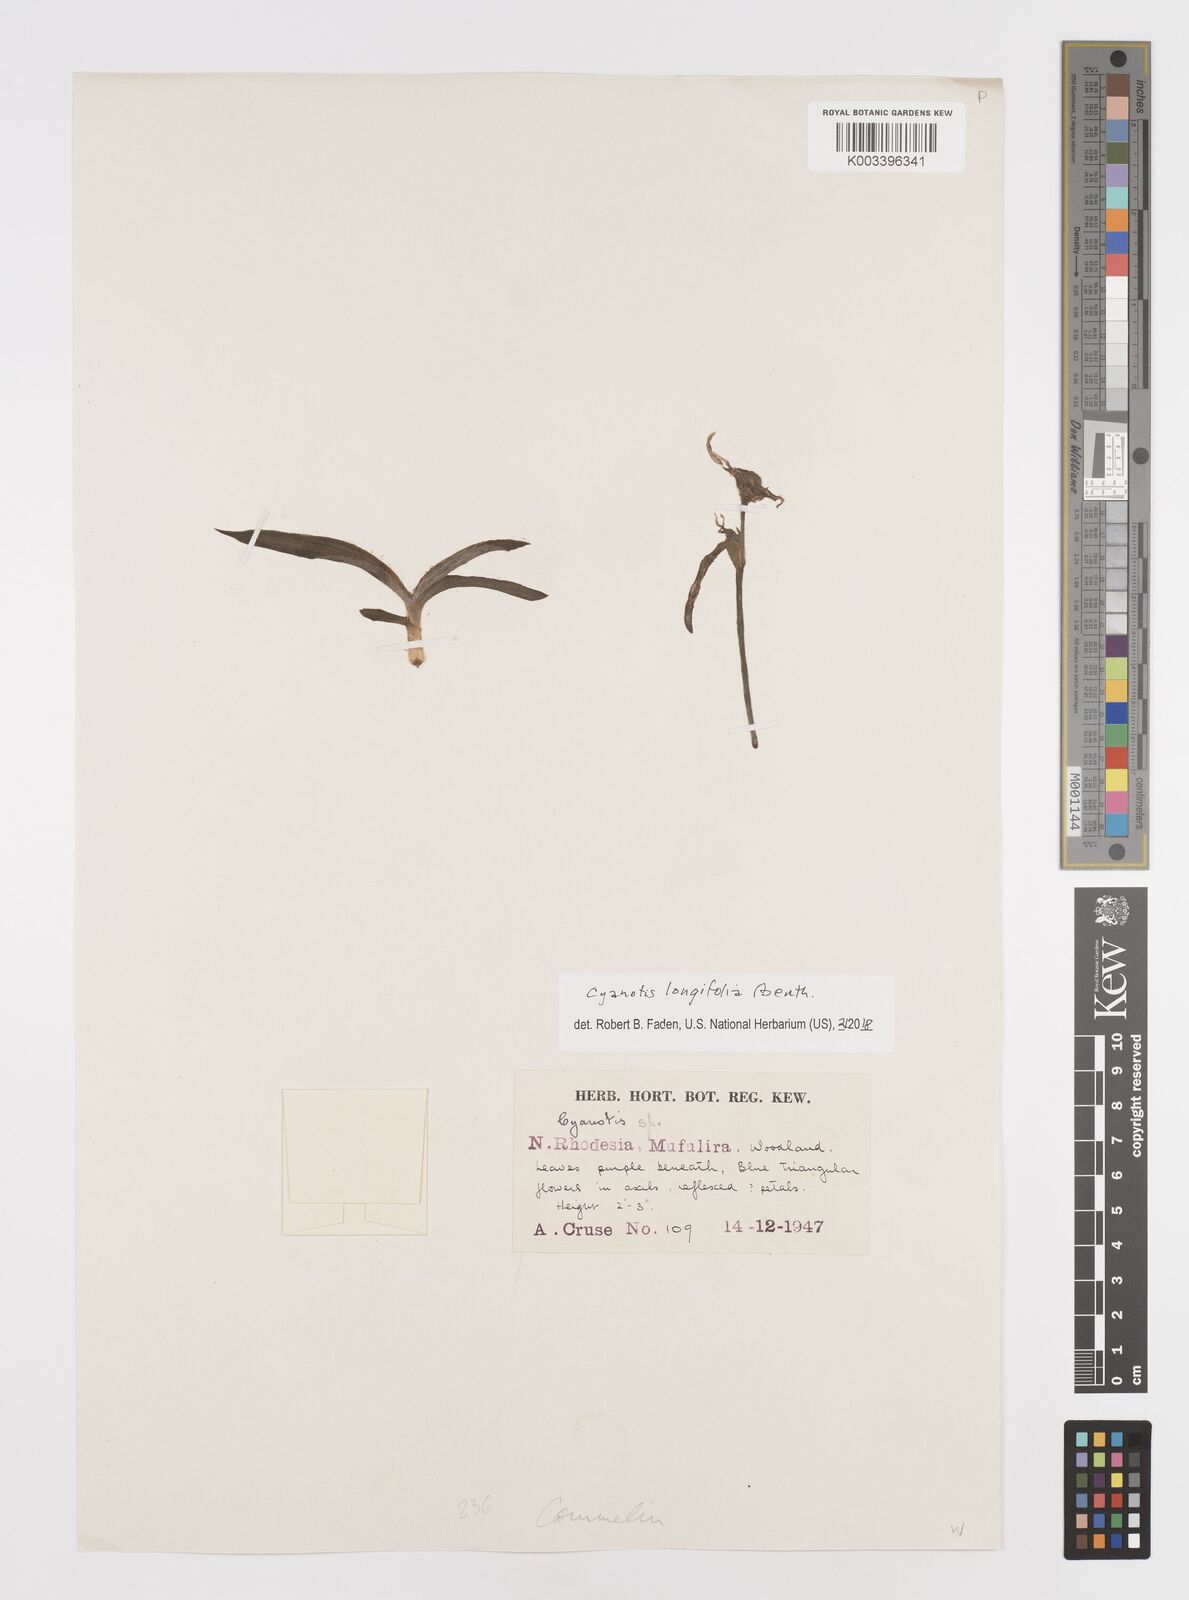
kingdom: Plantae
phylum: Tracheophyta
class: Liliopsida
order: Commelinales
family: Commelinaceae
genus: Cyanotis
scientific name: Cyanotis longifolia
